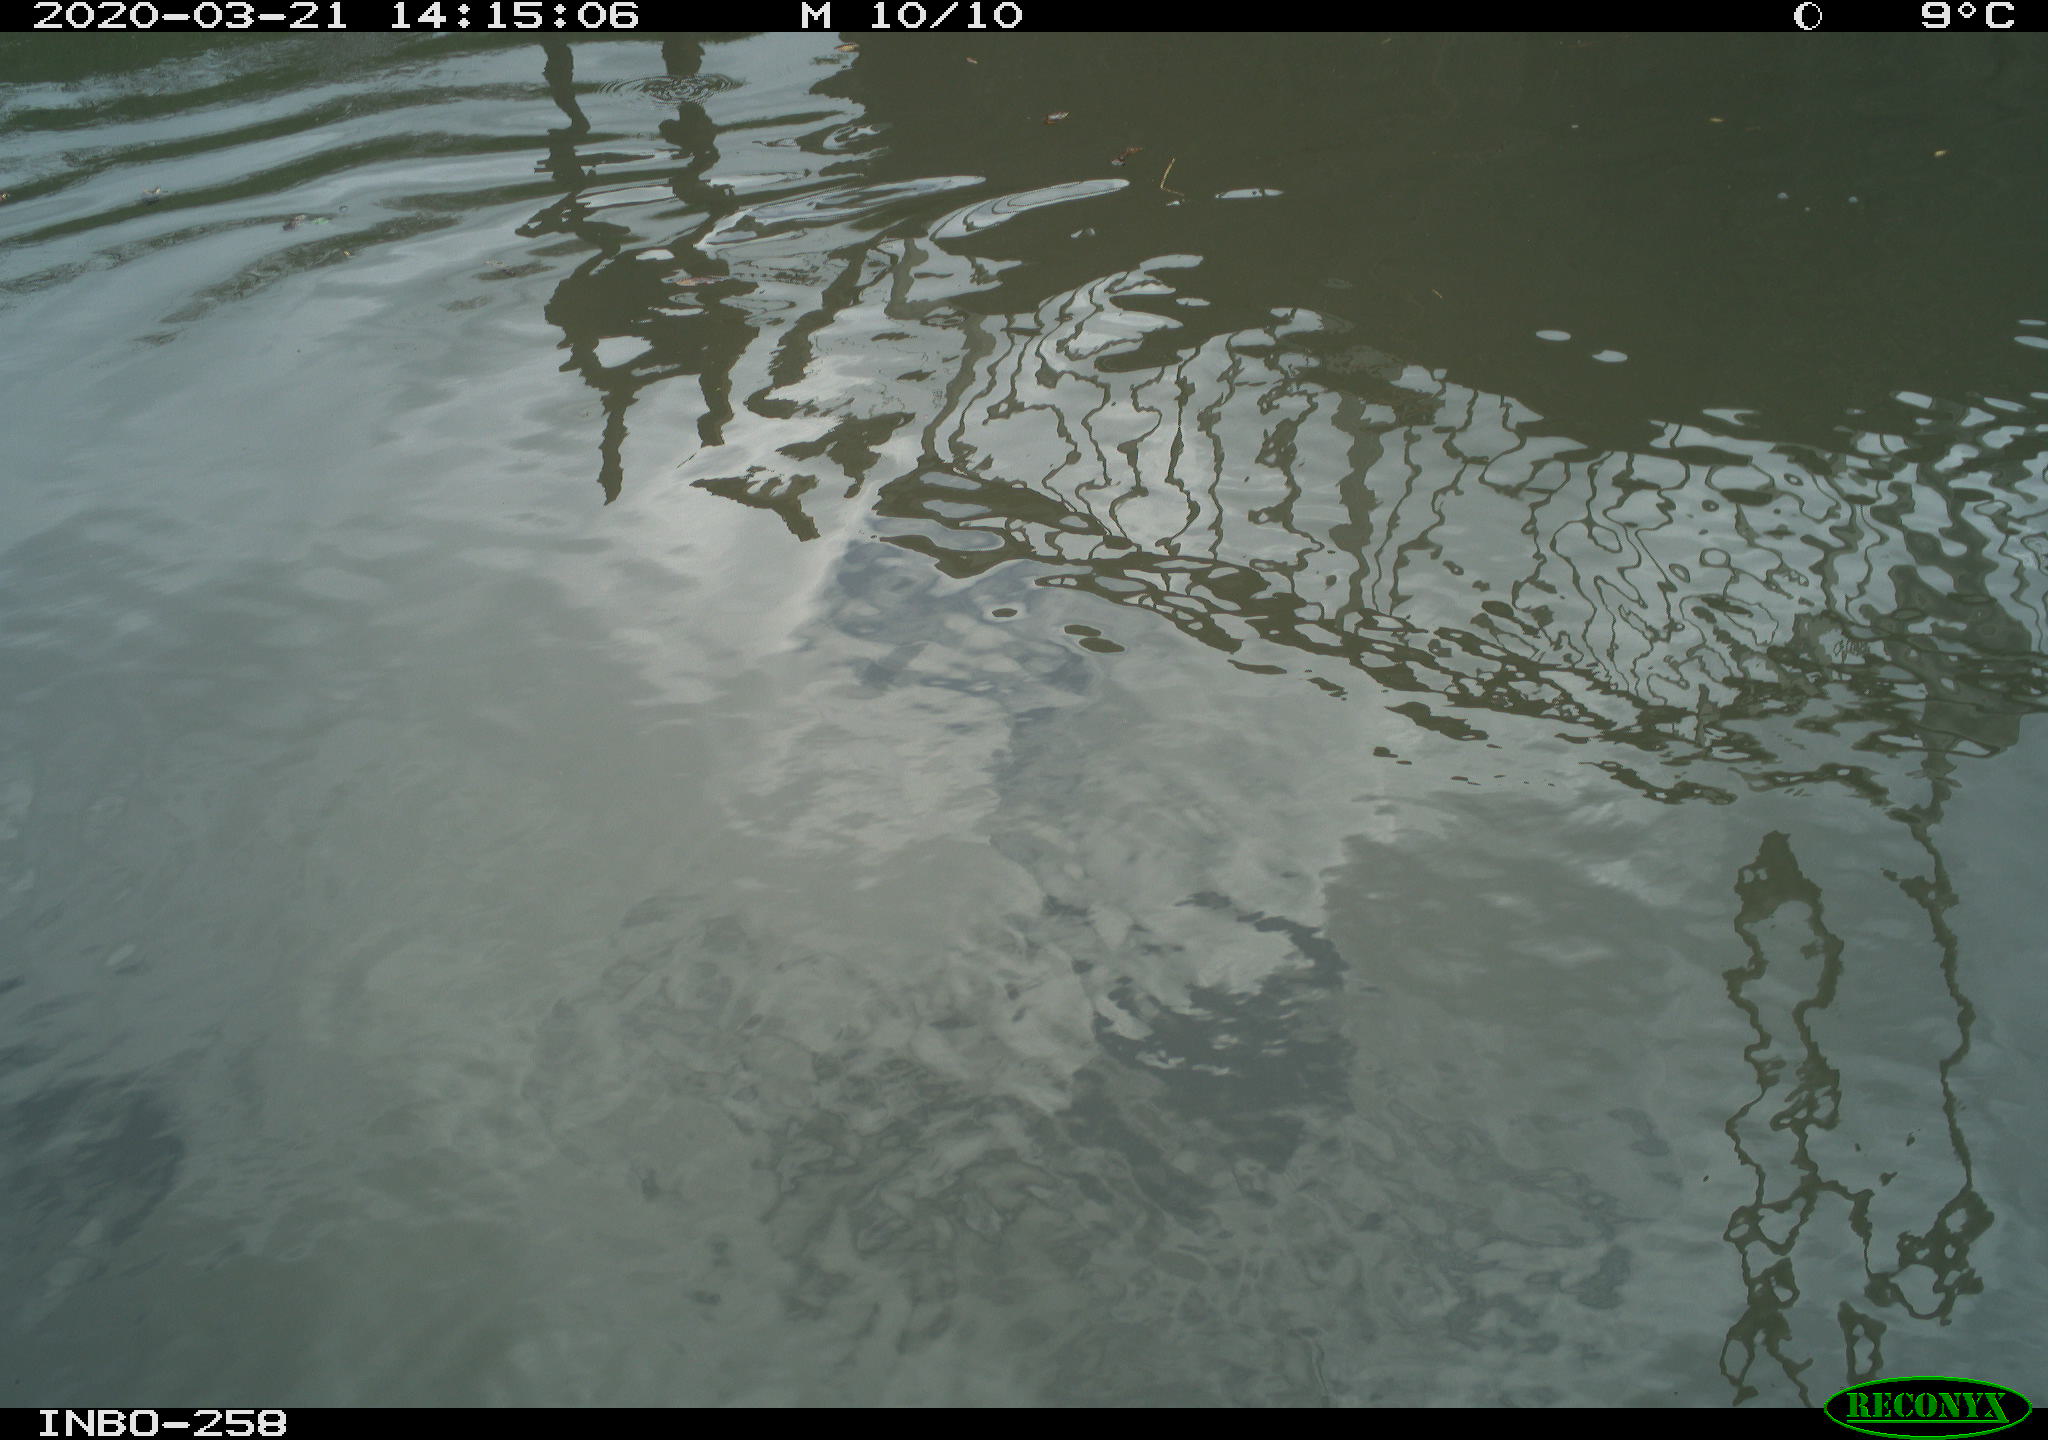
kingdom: Animalia
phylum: Chordata
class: Aves
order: Gruiformes
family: Rallidae
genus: Gallinula
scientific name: Gallinula chloropus
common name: Common moorhen
